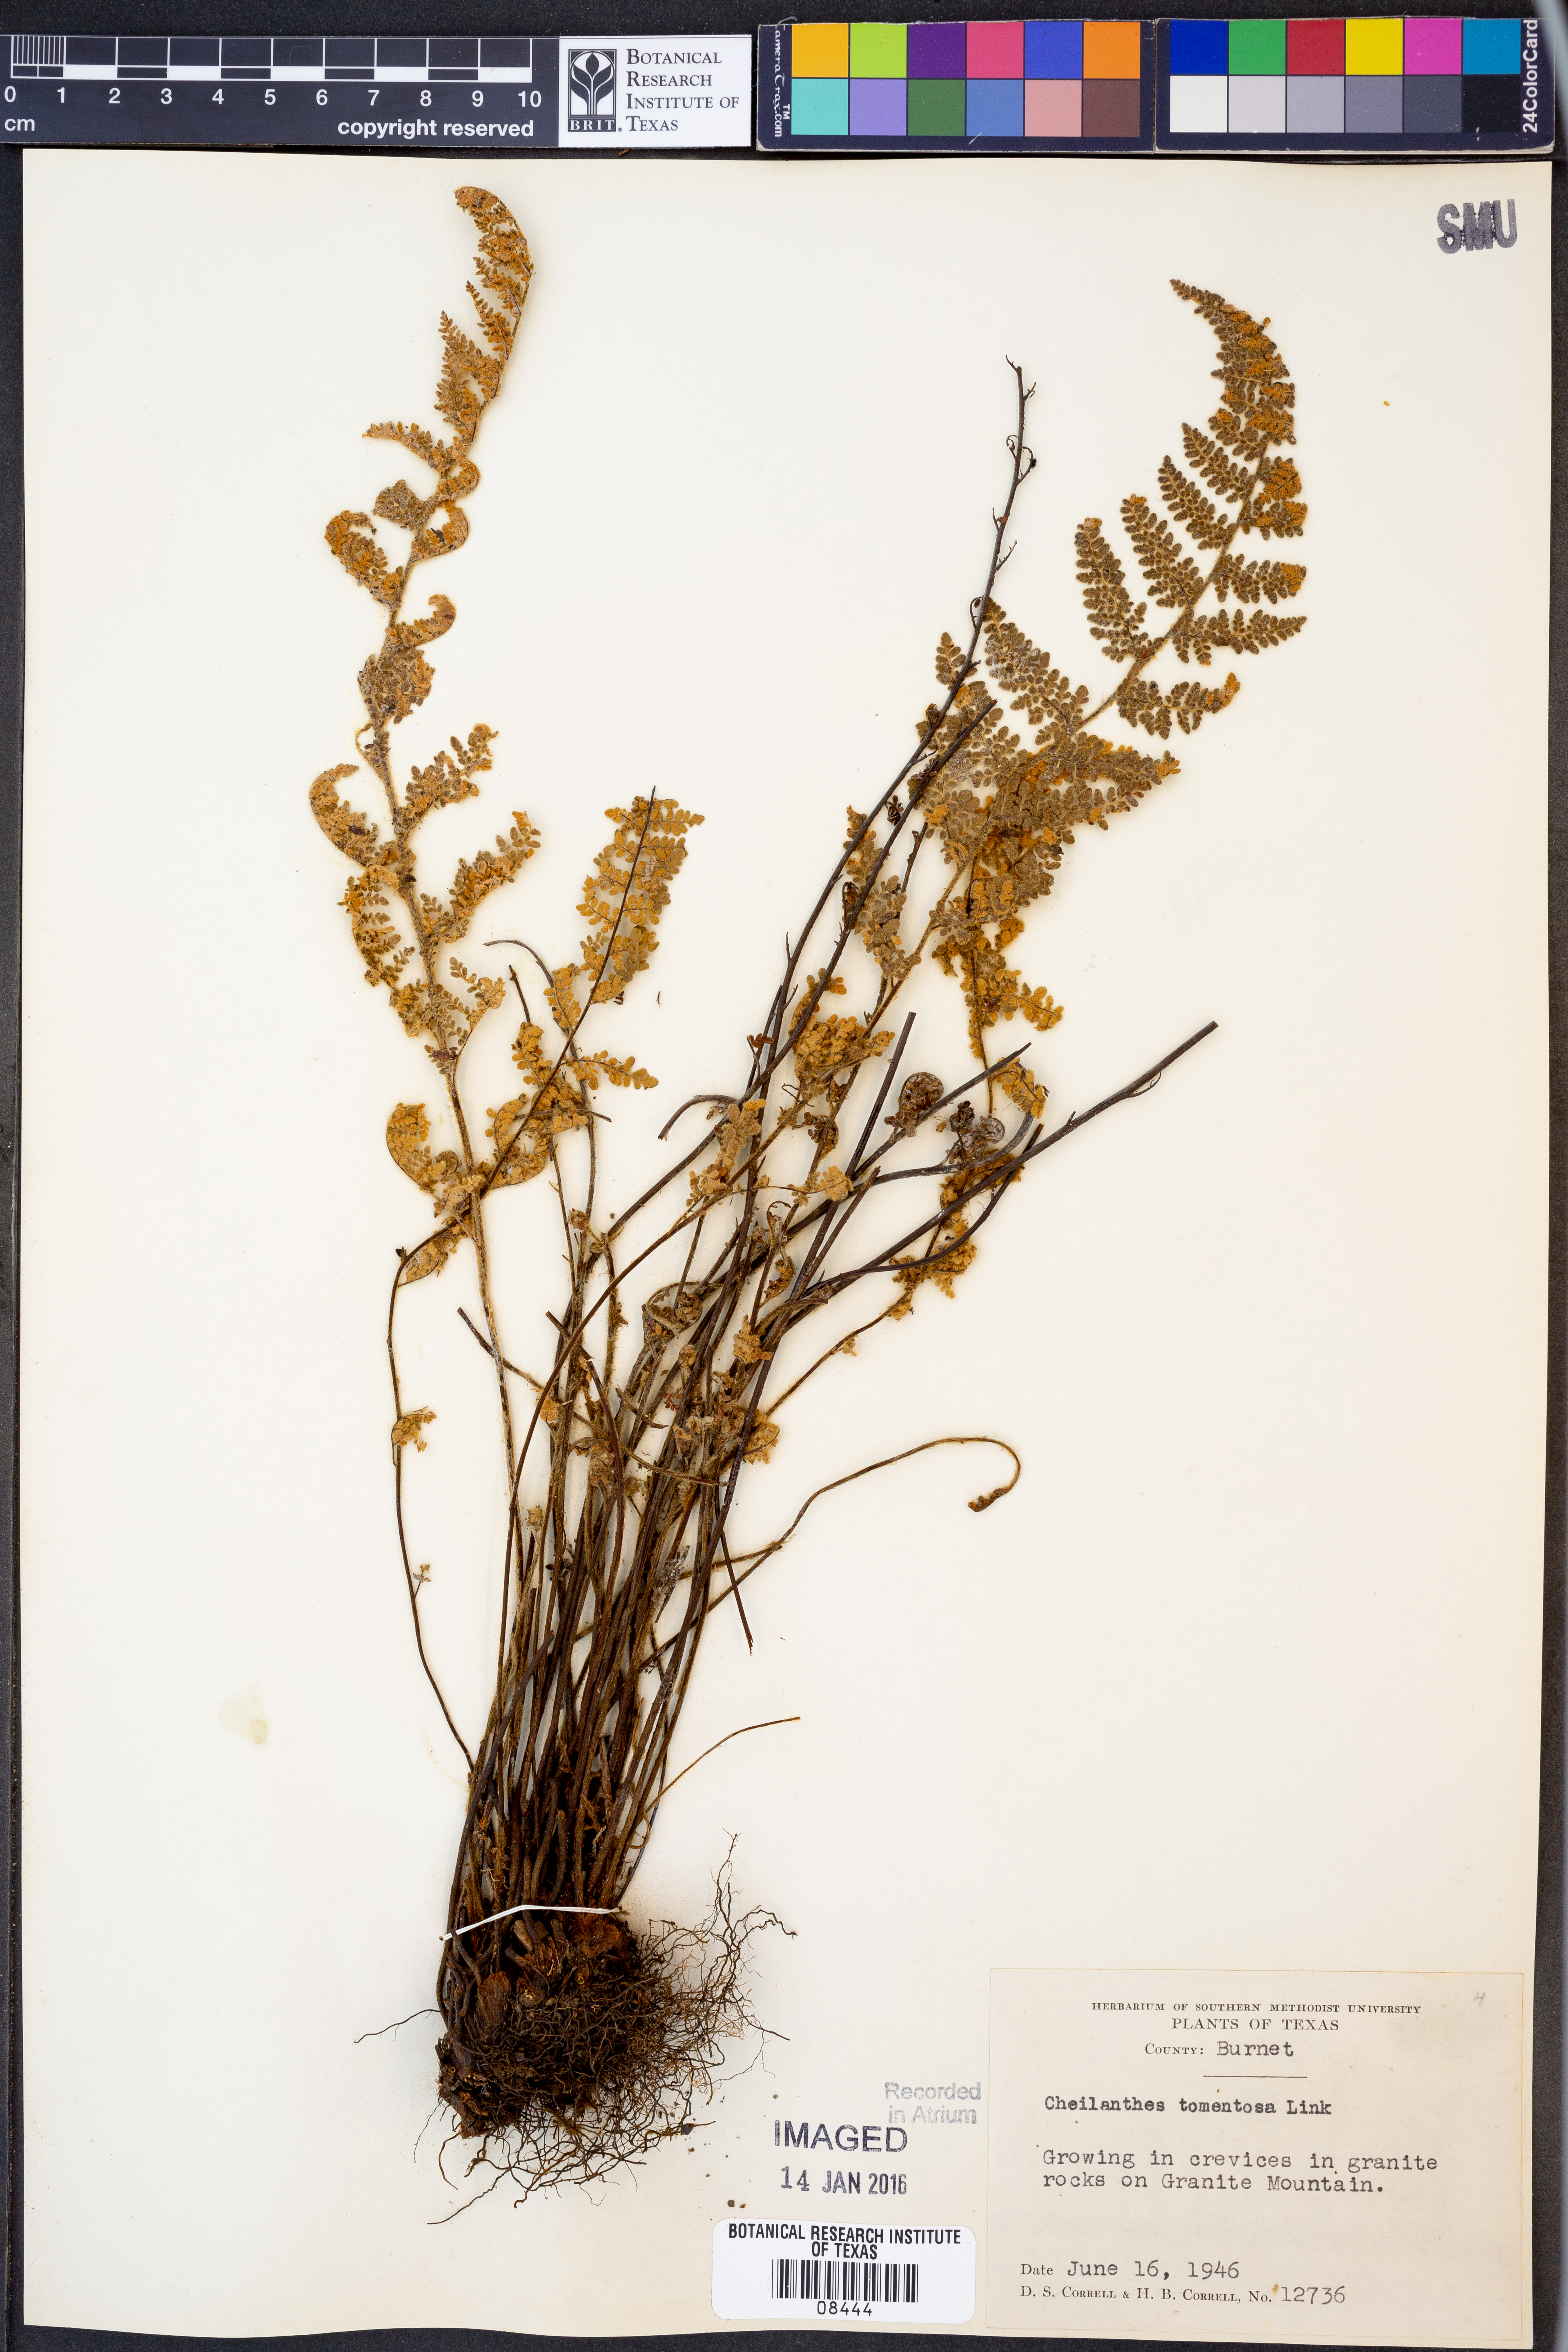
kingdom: Plantae
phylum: Tracheophyta
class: Polypodiopsida
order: Polypodiales
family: Pteridaceae
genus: Myriopteris
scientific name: Myriopteris tomentosa
